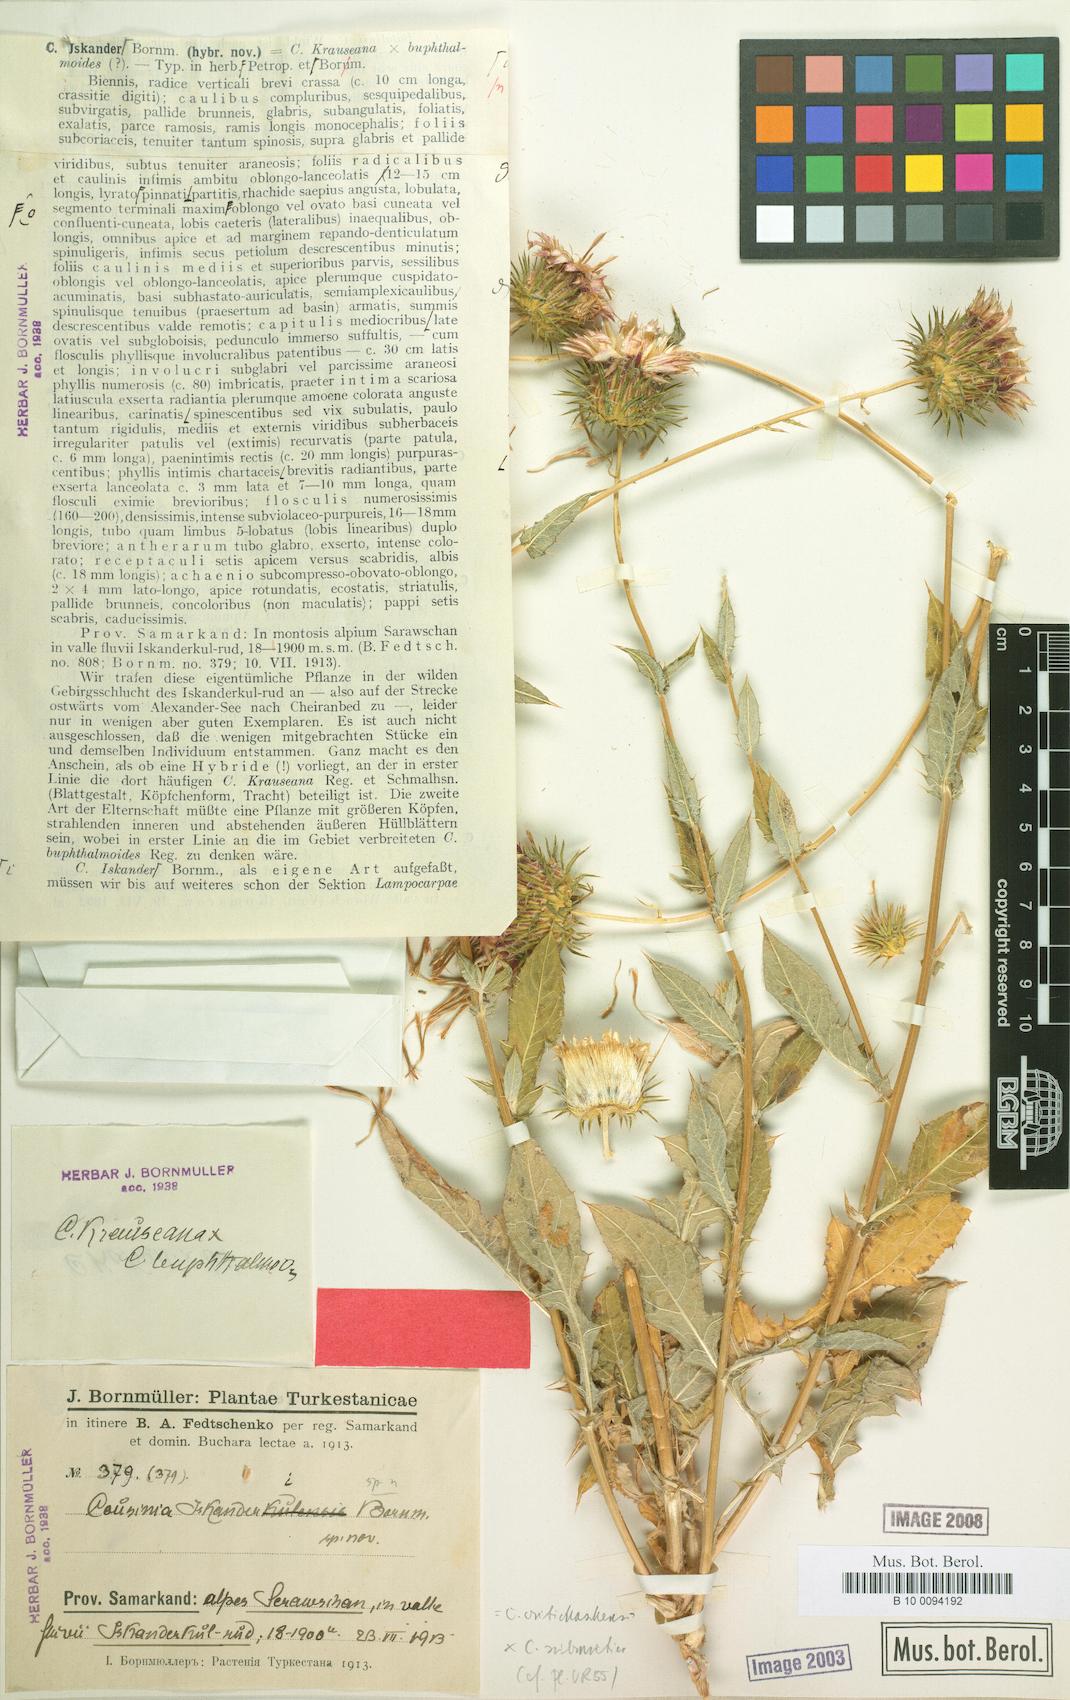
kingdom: Plantae
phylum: Tracheophyta
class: Magnoliopsida
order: Asterales
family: Asteraceae
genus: Cousinia
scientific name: Cousinia iskanderi
